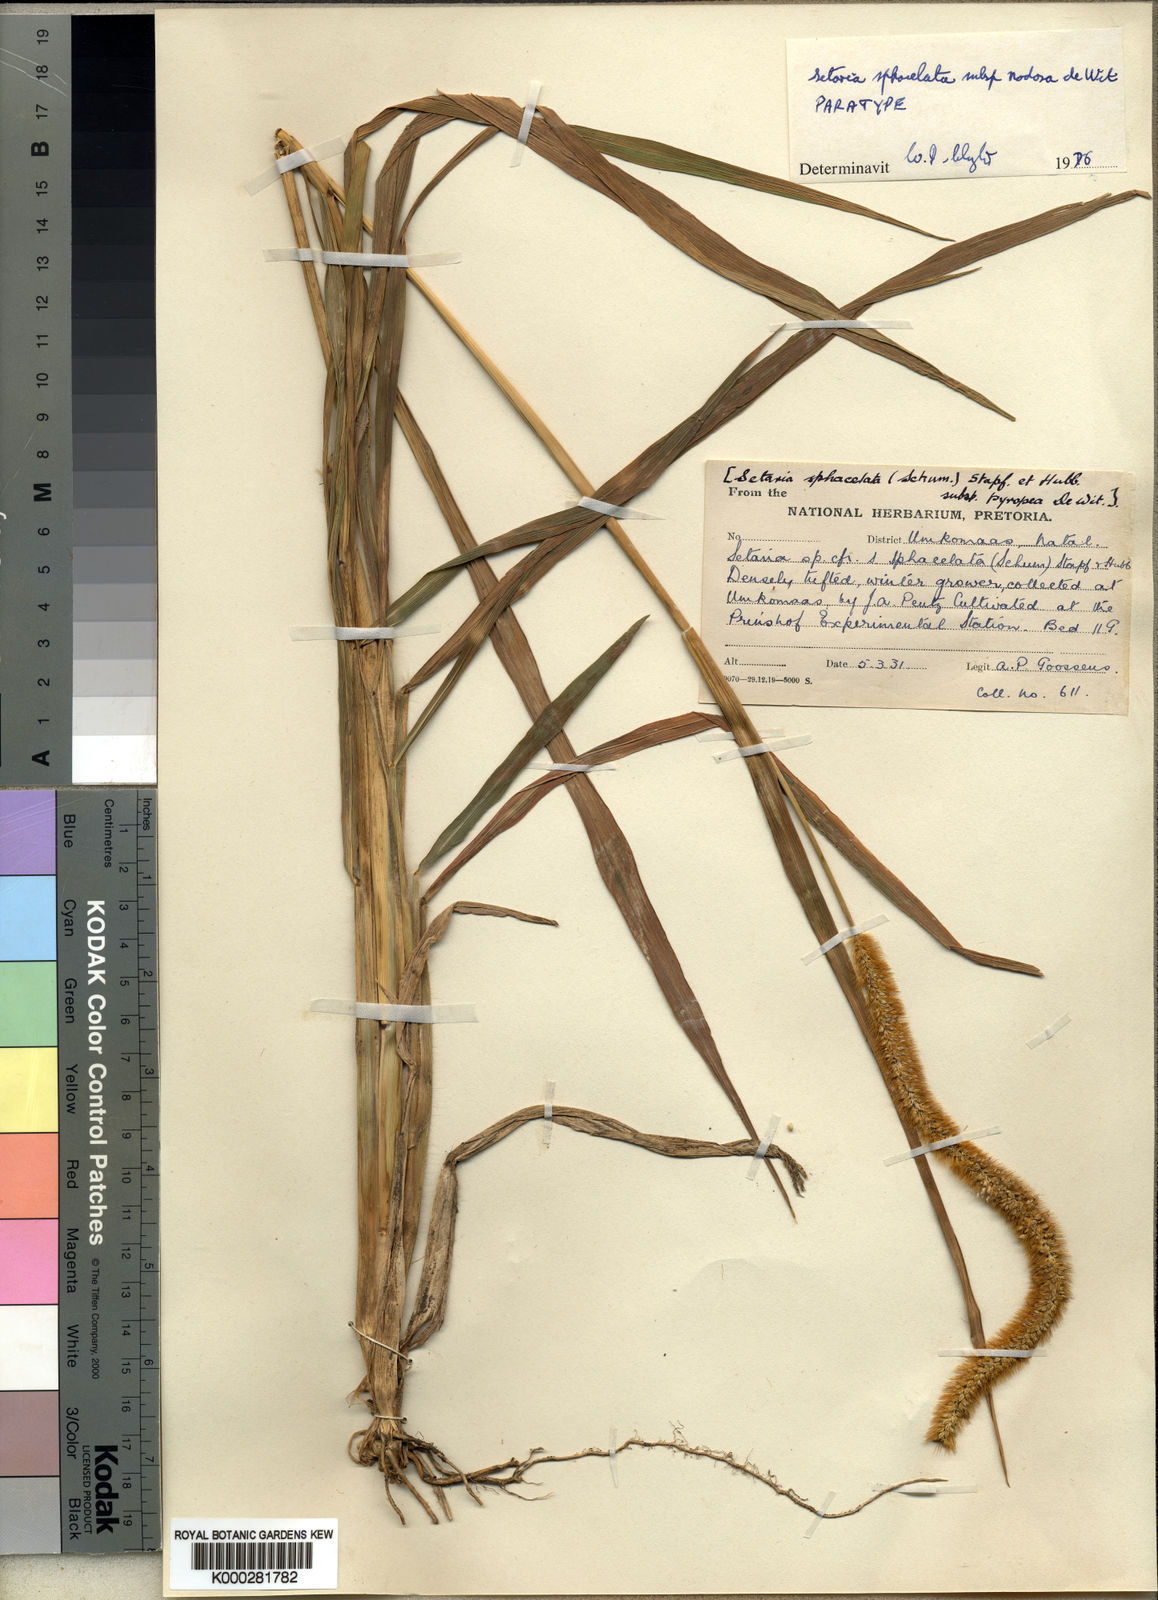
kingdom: Plantae
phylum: Tracheophyta
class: Liliopsida
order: Poales
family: Poaceae
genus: Setaria
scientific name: Setaria sphacelata
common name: African bristlegrass
